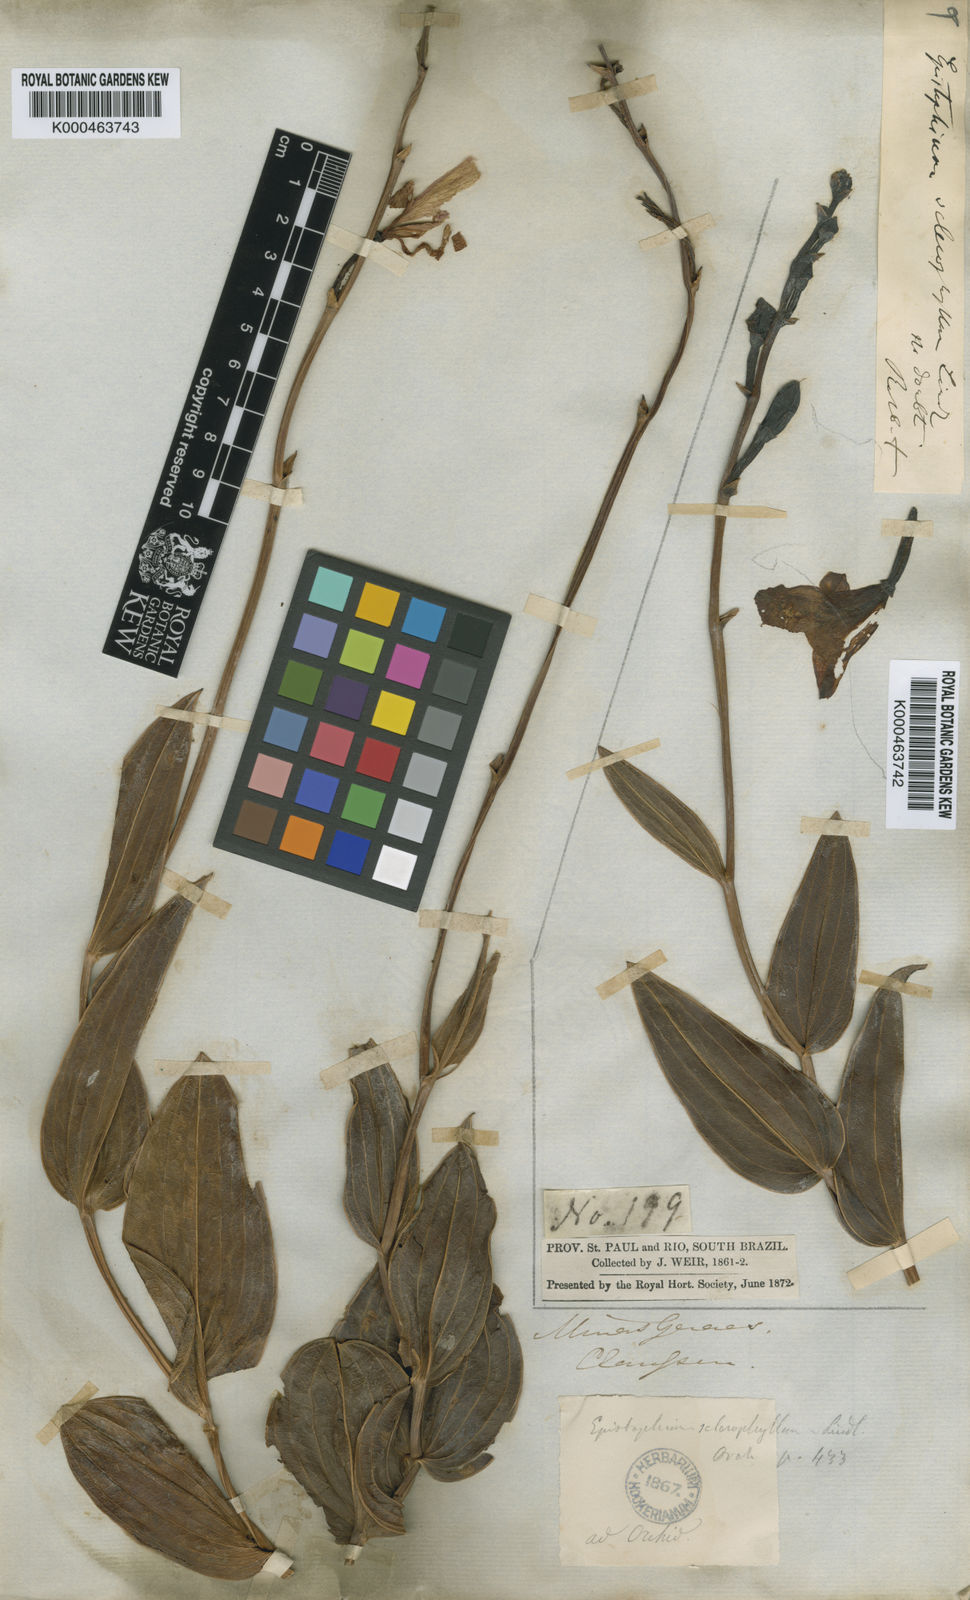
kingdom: Plantae
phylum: Tracheophyta
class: Liliopsida
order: Asparagales
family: Orchidaceae
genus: Epistephium
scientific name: Epistephium sclerophyllum
